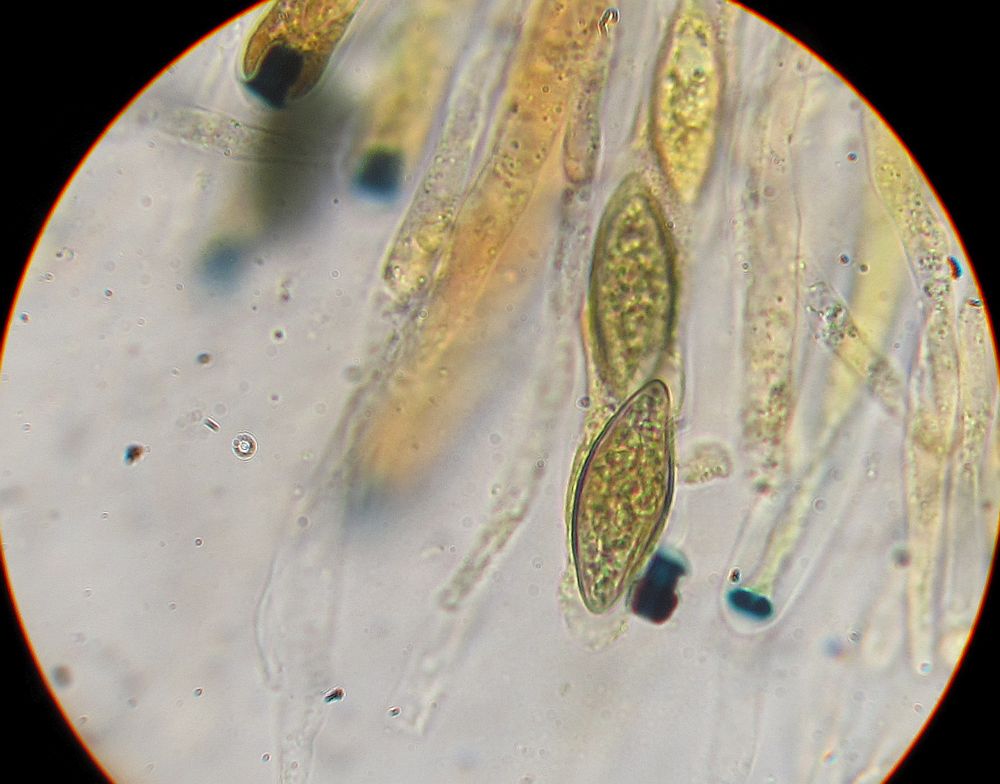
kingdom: Fungi
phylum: Ascomycota
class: Sordariomycetes
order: Xylariales
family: Xylariaceae
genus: Anthostomella
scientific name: Anthostomella
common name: skjoldkerne
